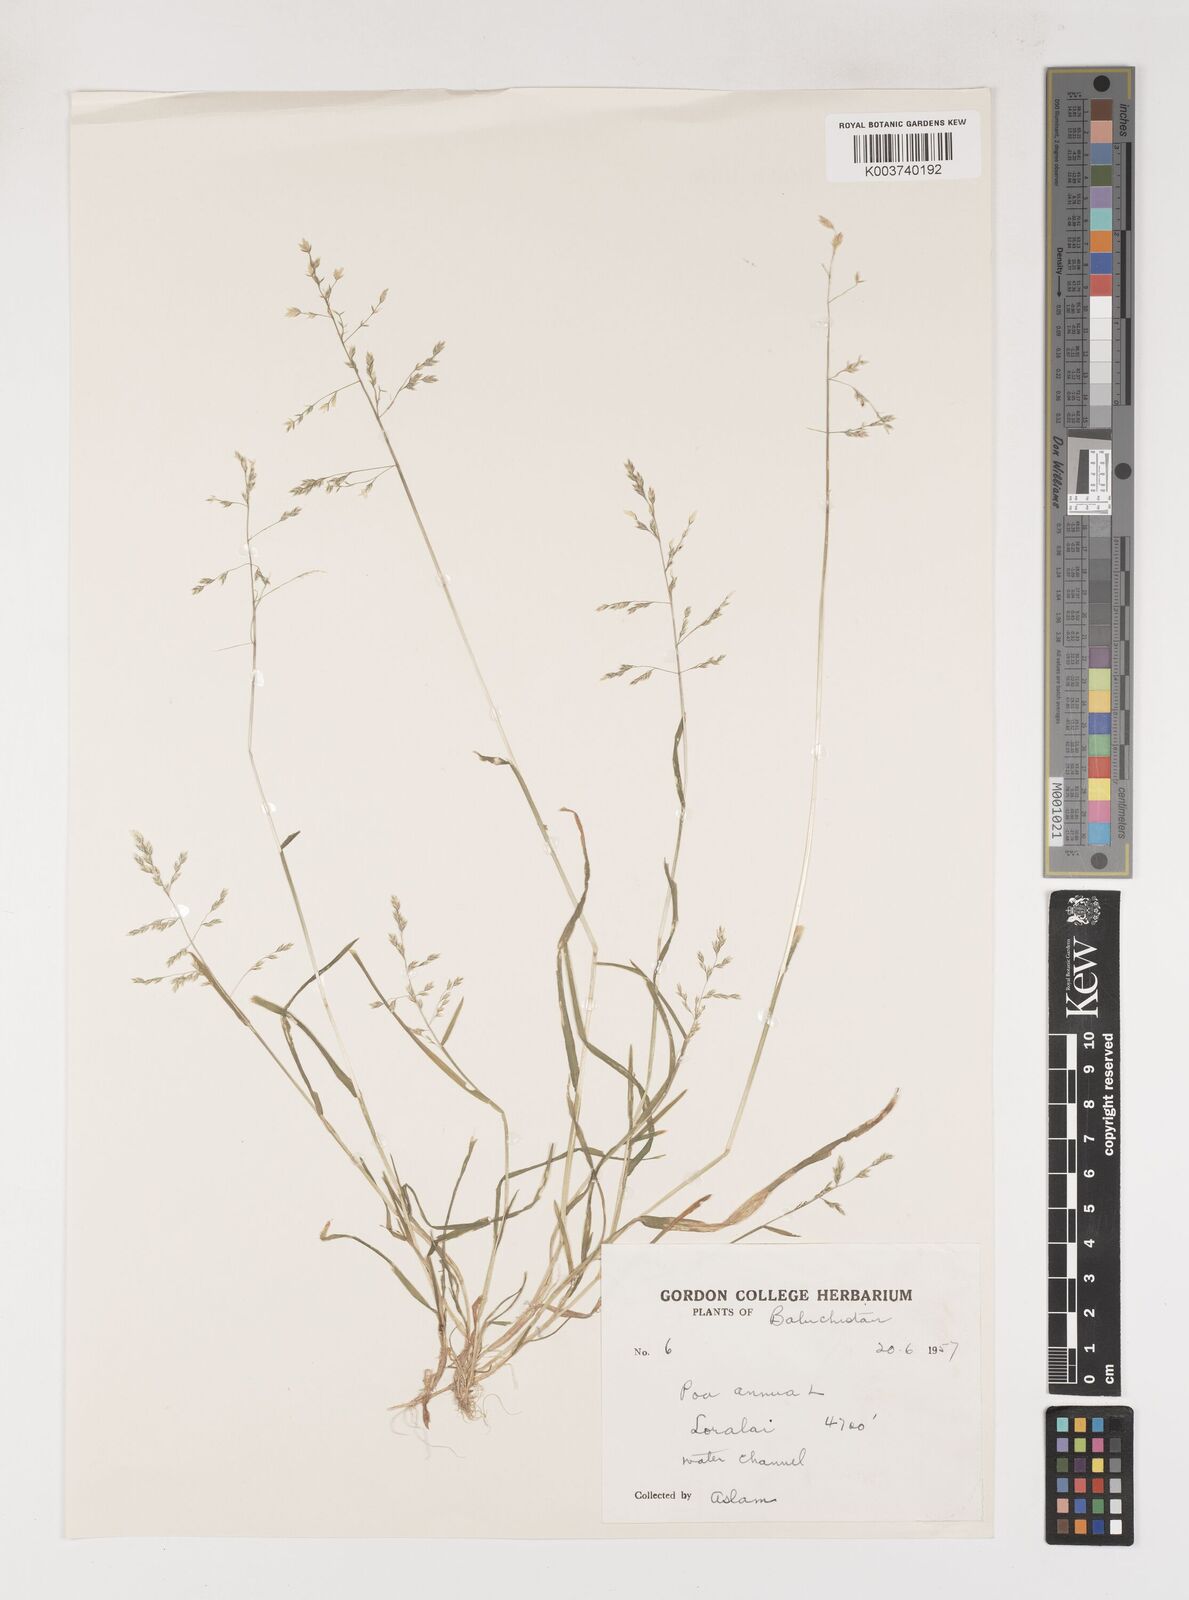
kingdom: Plantae
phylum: Tracheophyta
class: Liliopsida
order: Poales
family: Poaceae
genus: Poa
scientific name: Poa annua
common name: Annual bluegrass
